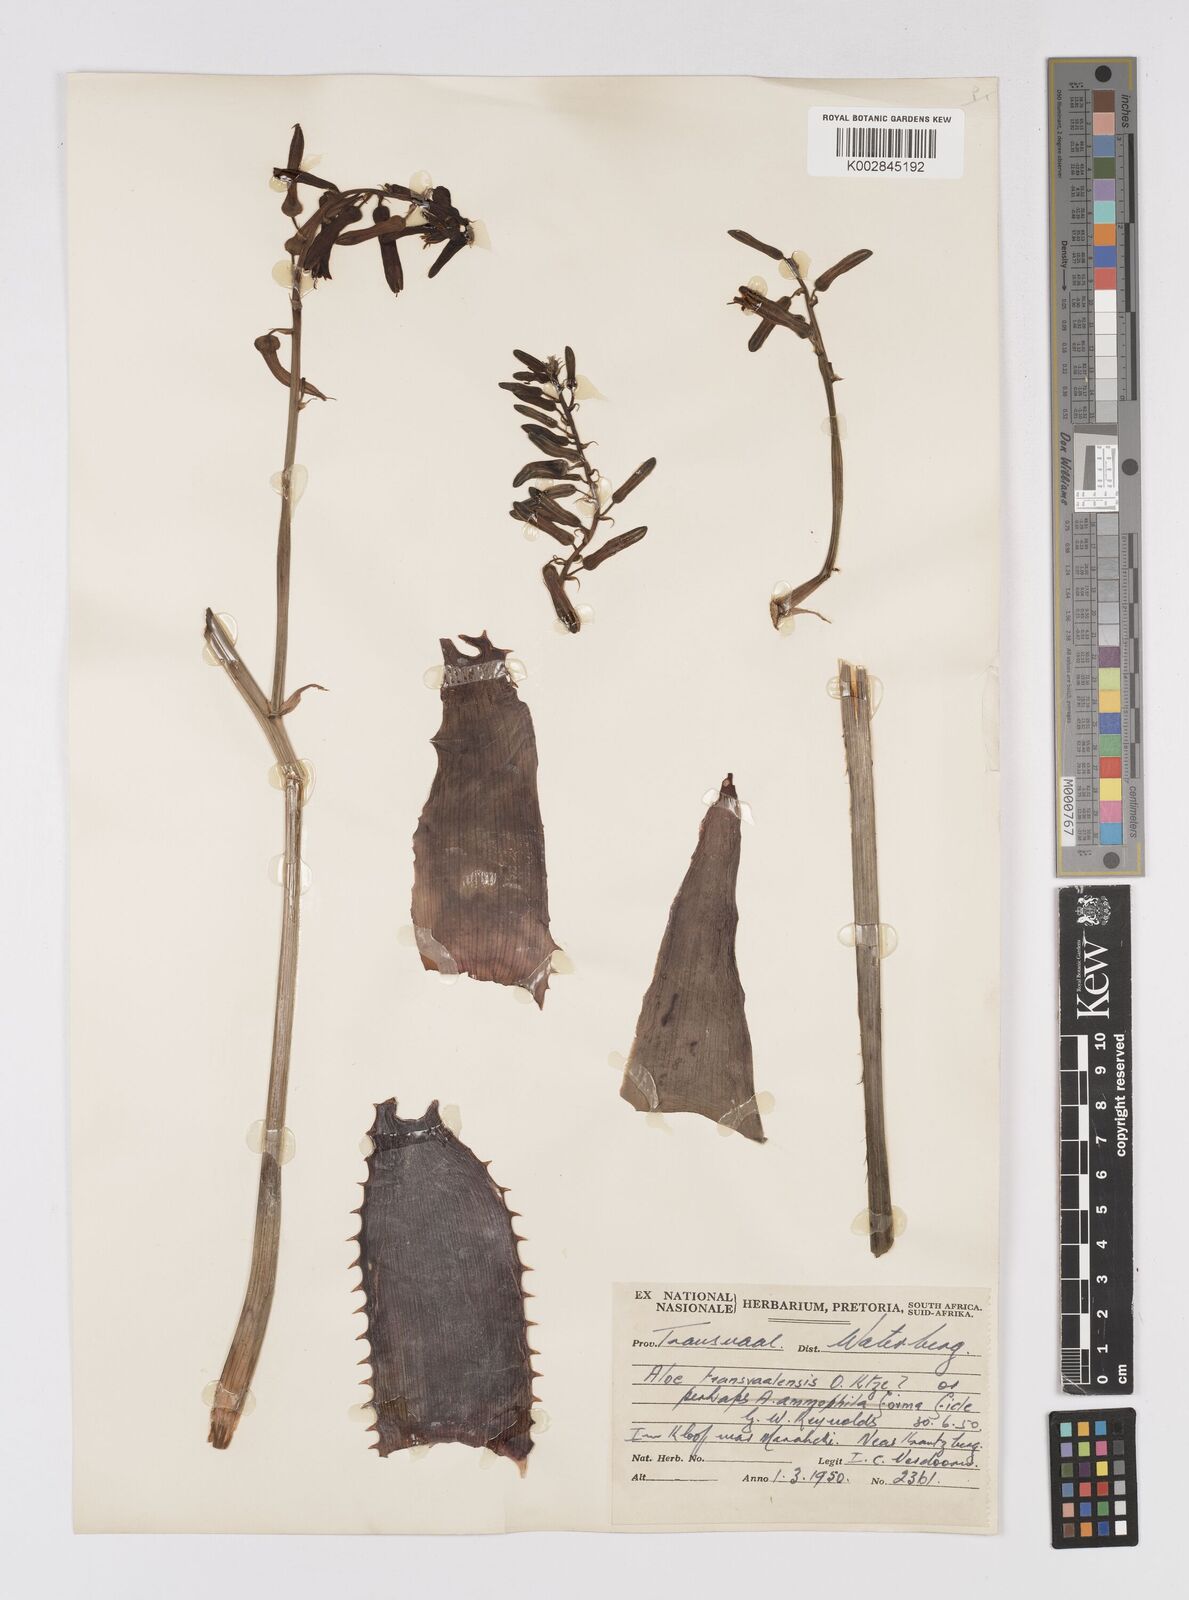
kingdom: Plantae
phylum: Tracheophyta
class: Liliopsida
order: Asparagales
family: Asphodelaceae
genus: Aloe
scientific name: Aloe transvaalensis
